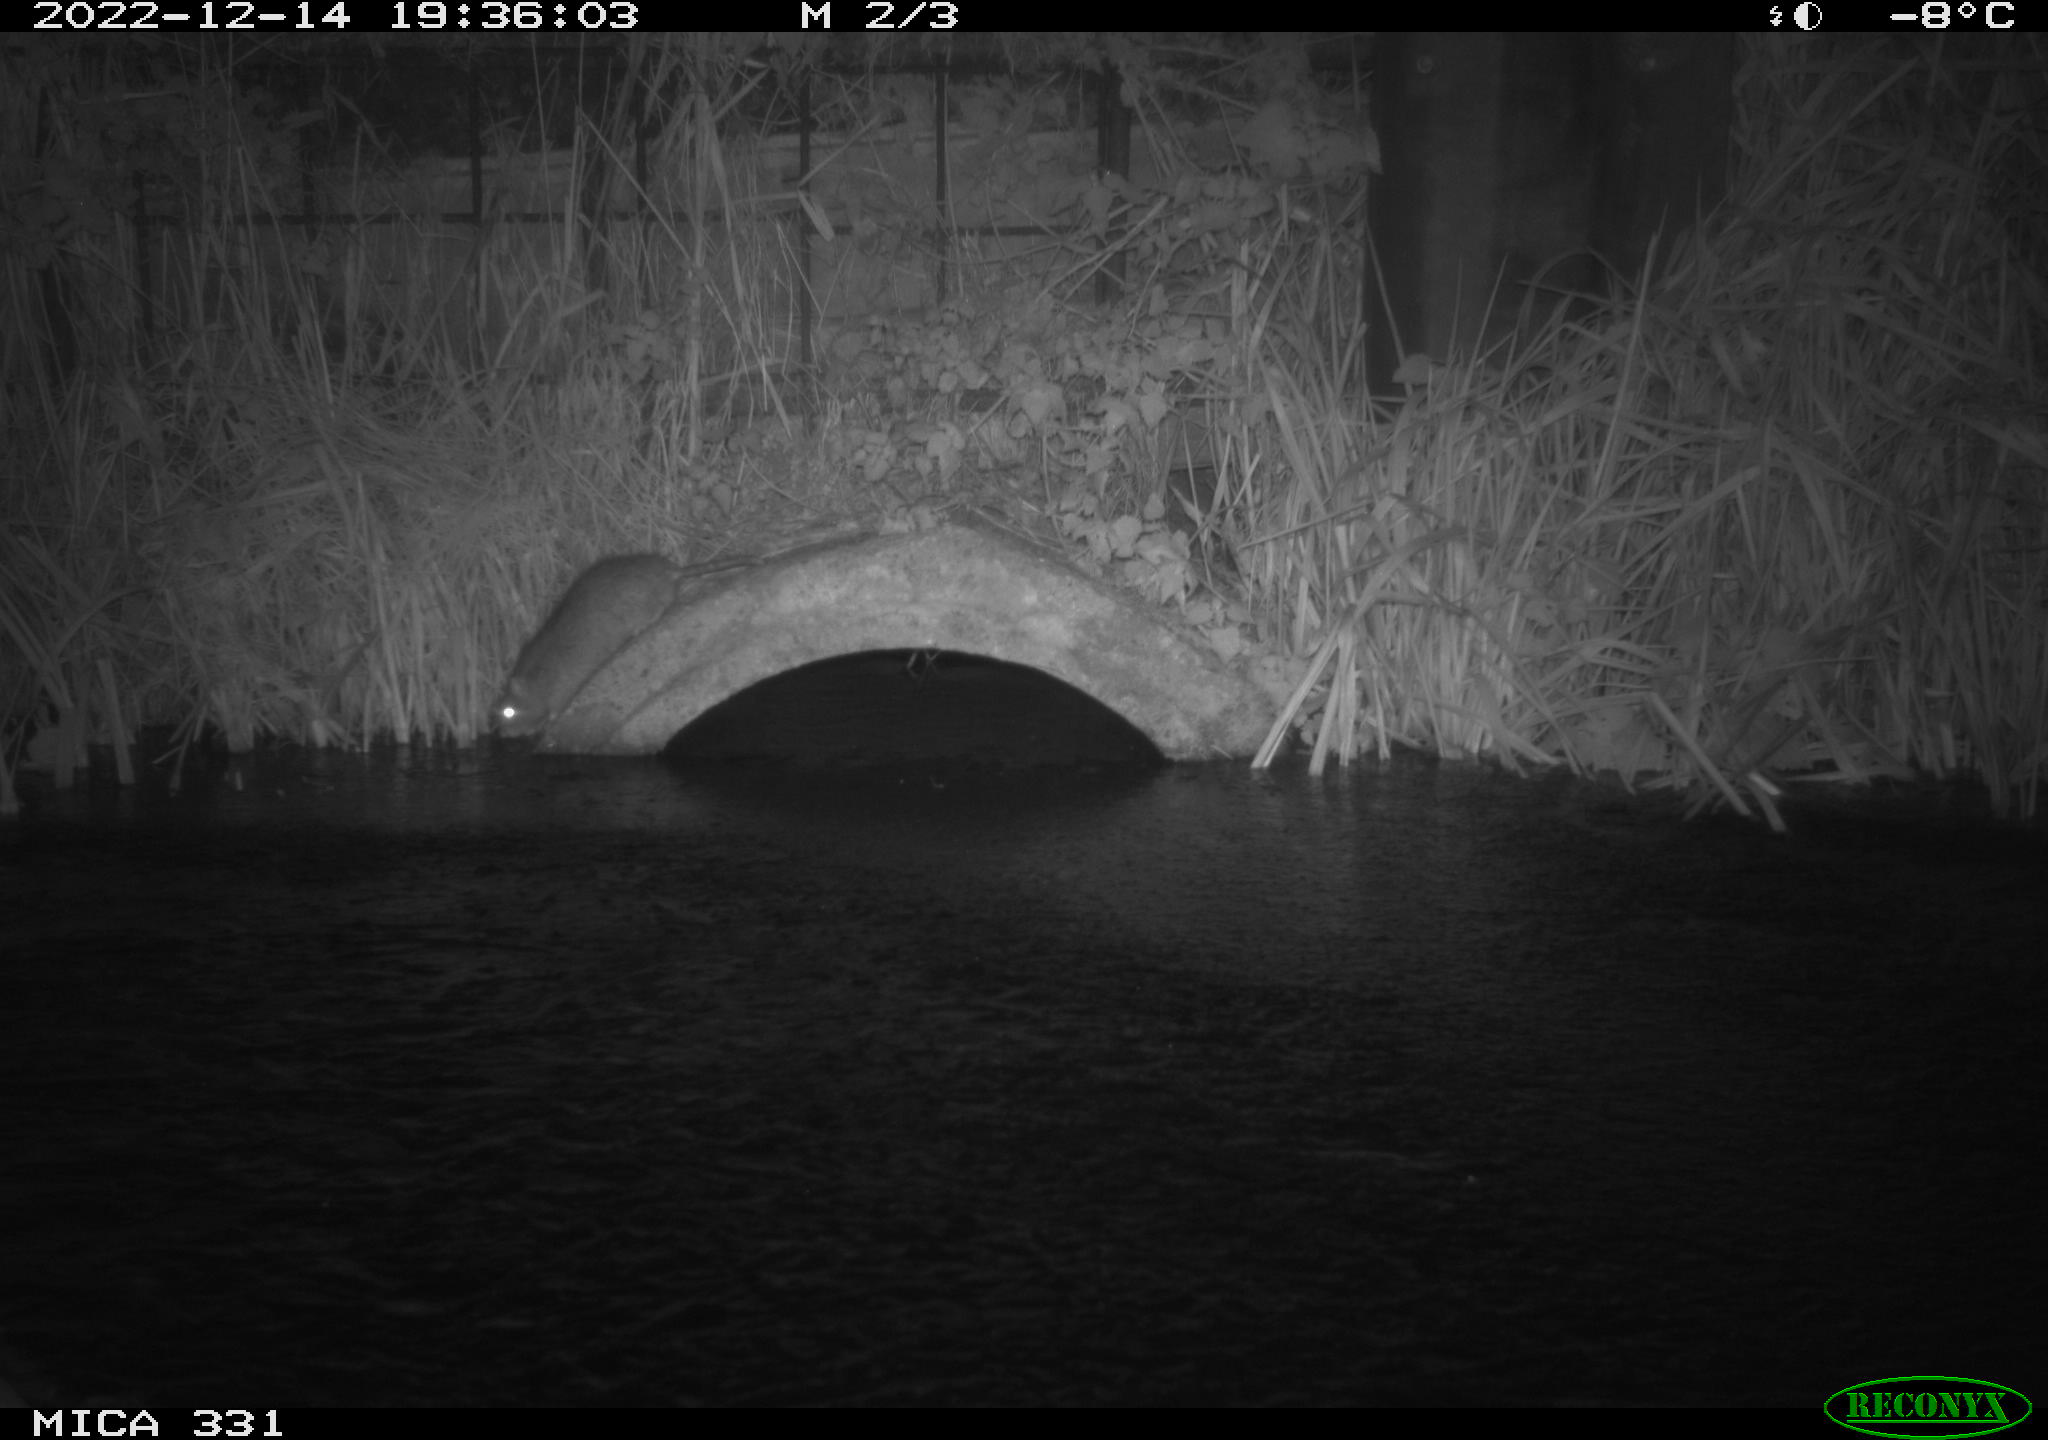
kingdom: Animalia
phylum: Chordata
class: Mammalia
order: Rodentia
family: Muridae
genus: Rattus
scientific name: Rattus norvegicus
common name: Brown rat
